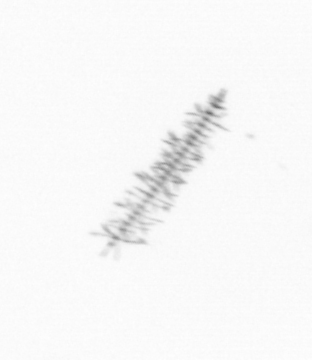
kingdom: Chromista
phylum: Ochrophyta
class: Bacillariophyceae
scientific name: Bacillariophyceae
